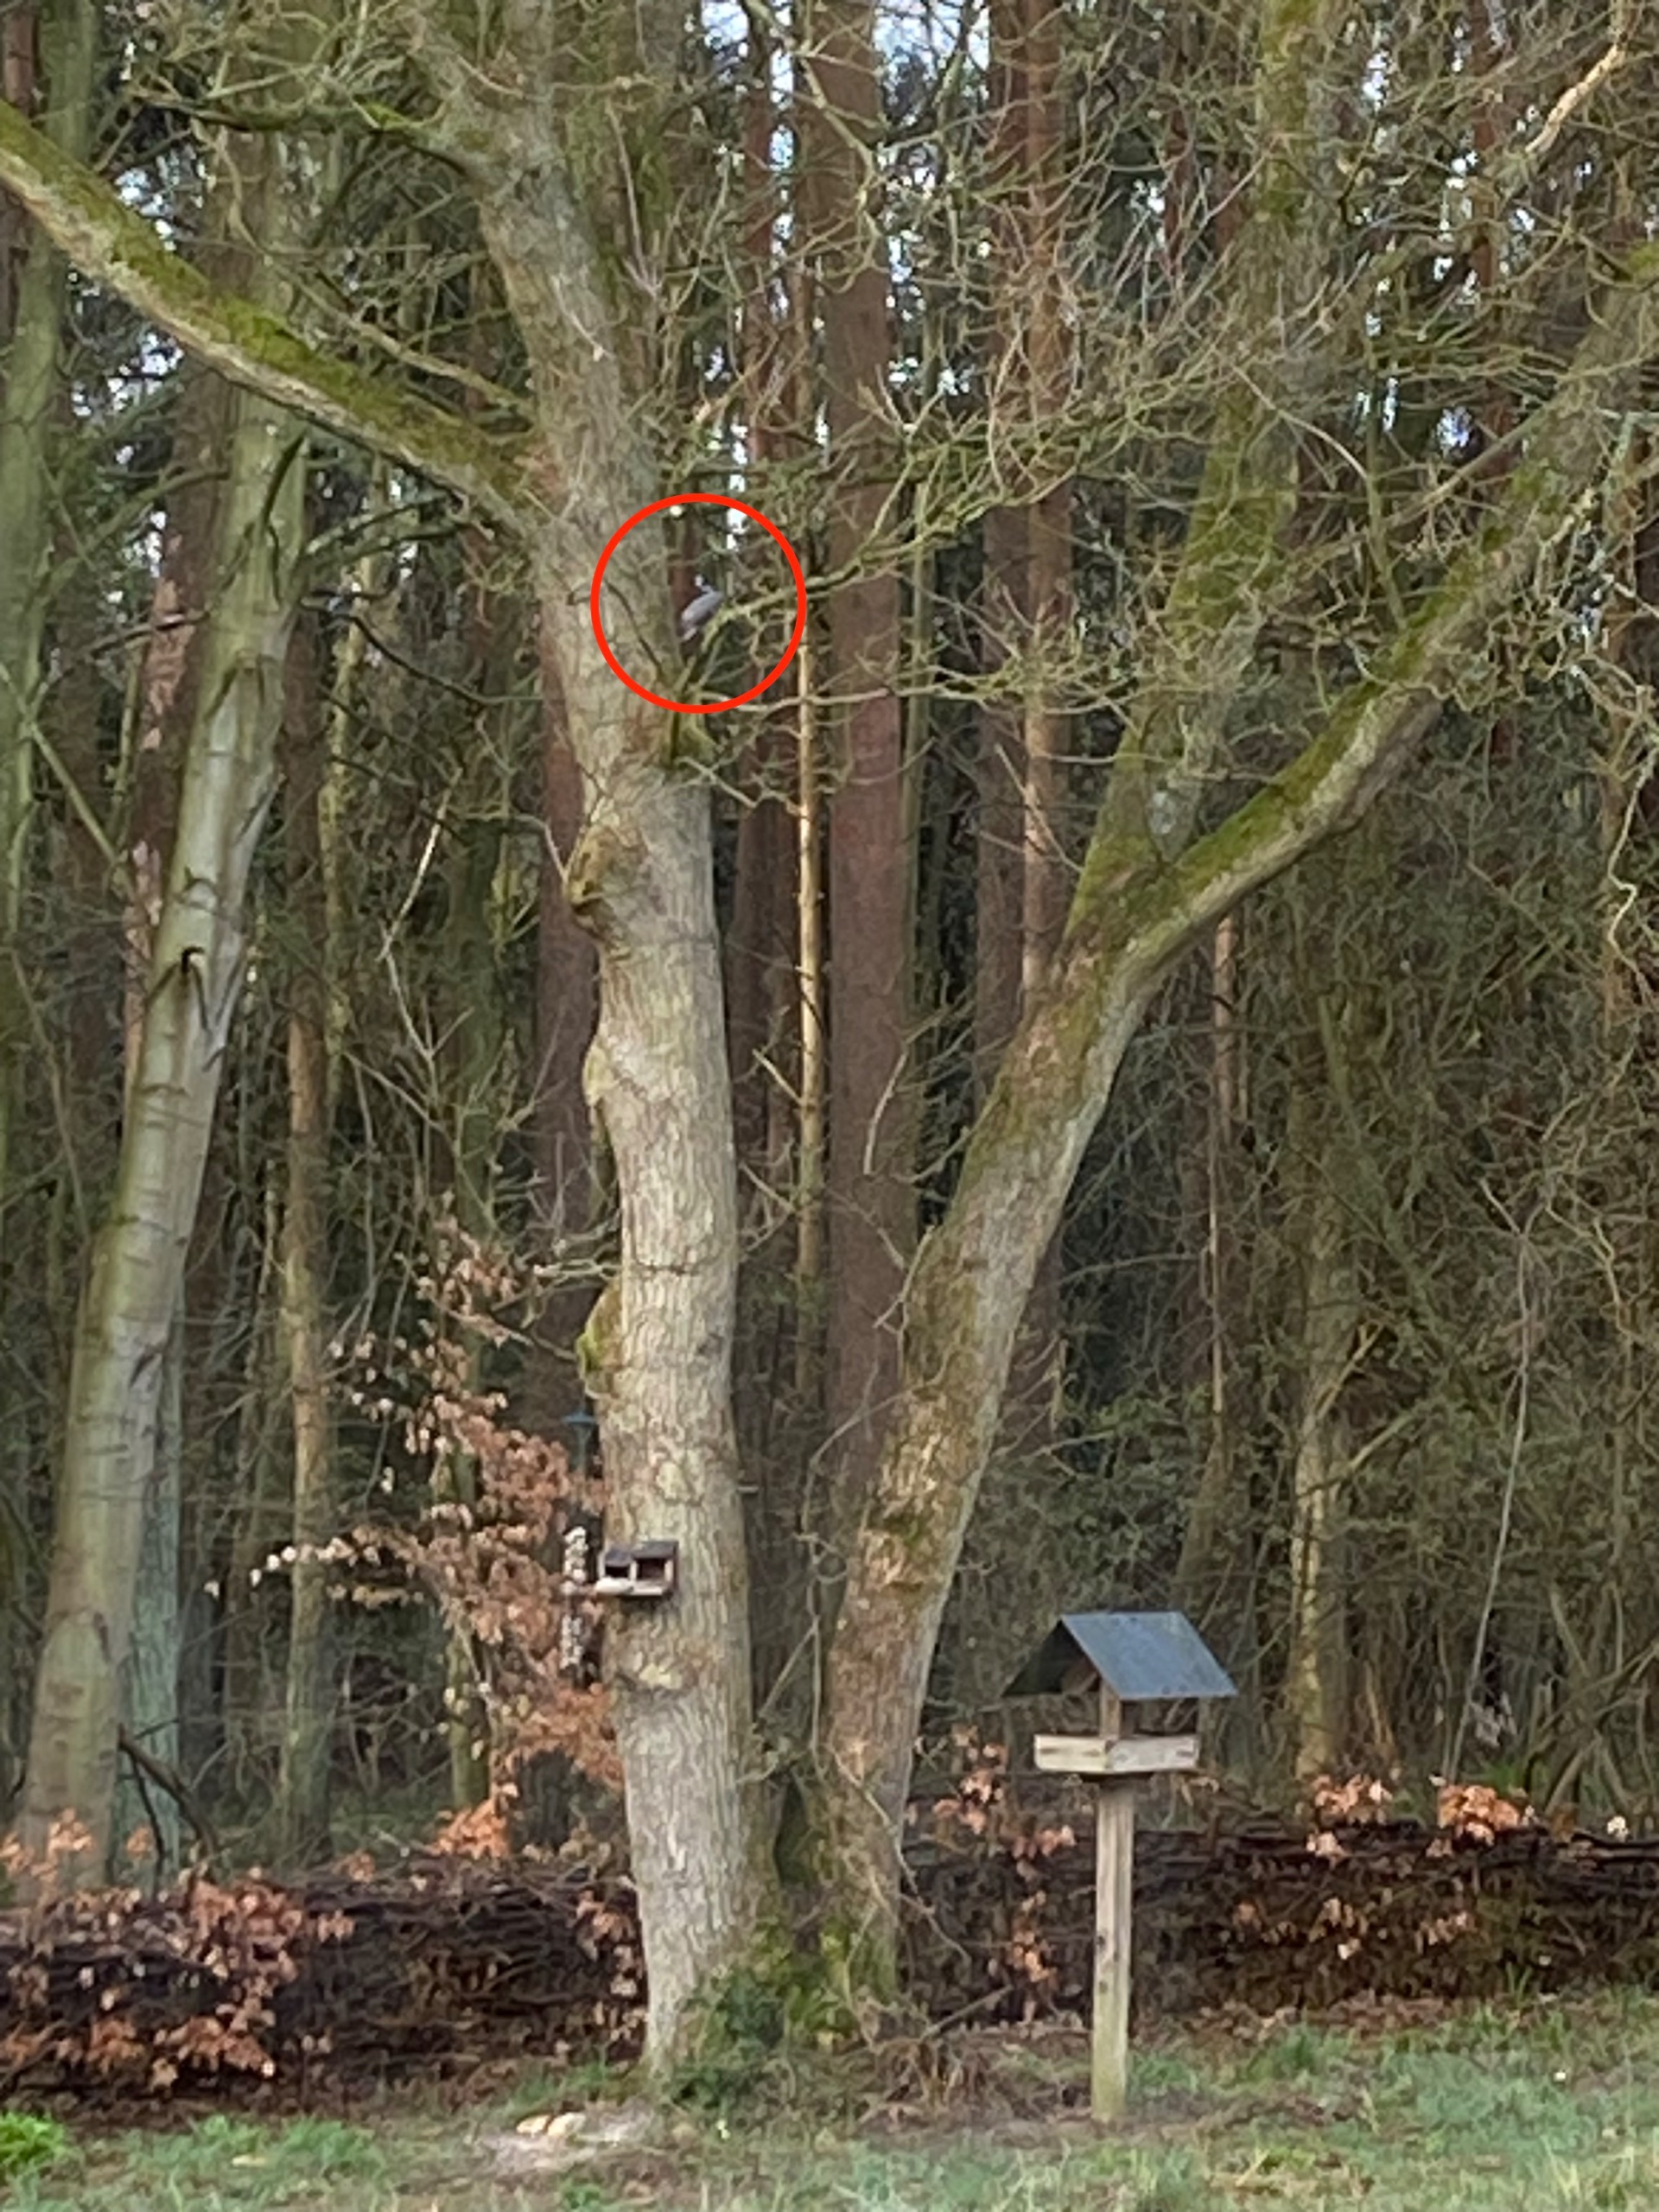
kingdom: Animalia
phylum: Chordata
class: Aves
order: Accipitriformes
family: Accipitridae
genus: Accipiter
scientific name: Accipiter nisus
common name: Spurvehøg
